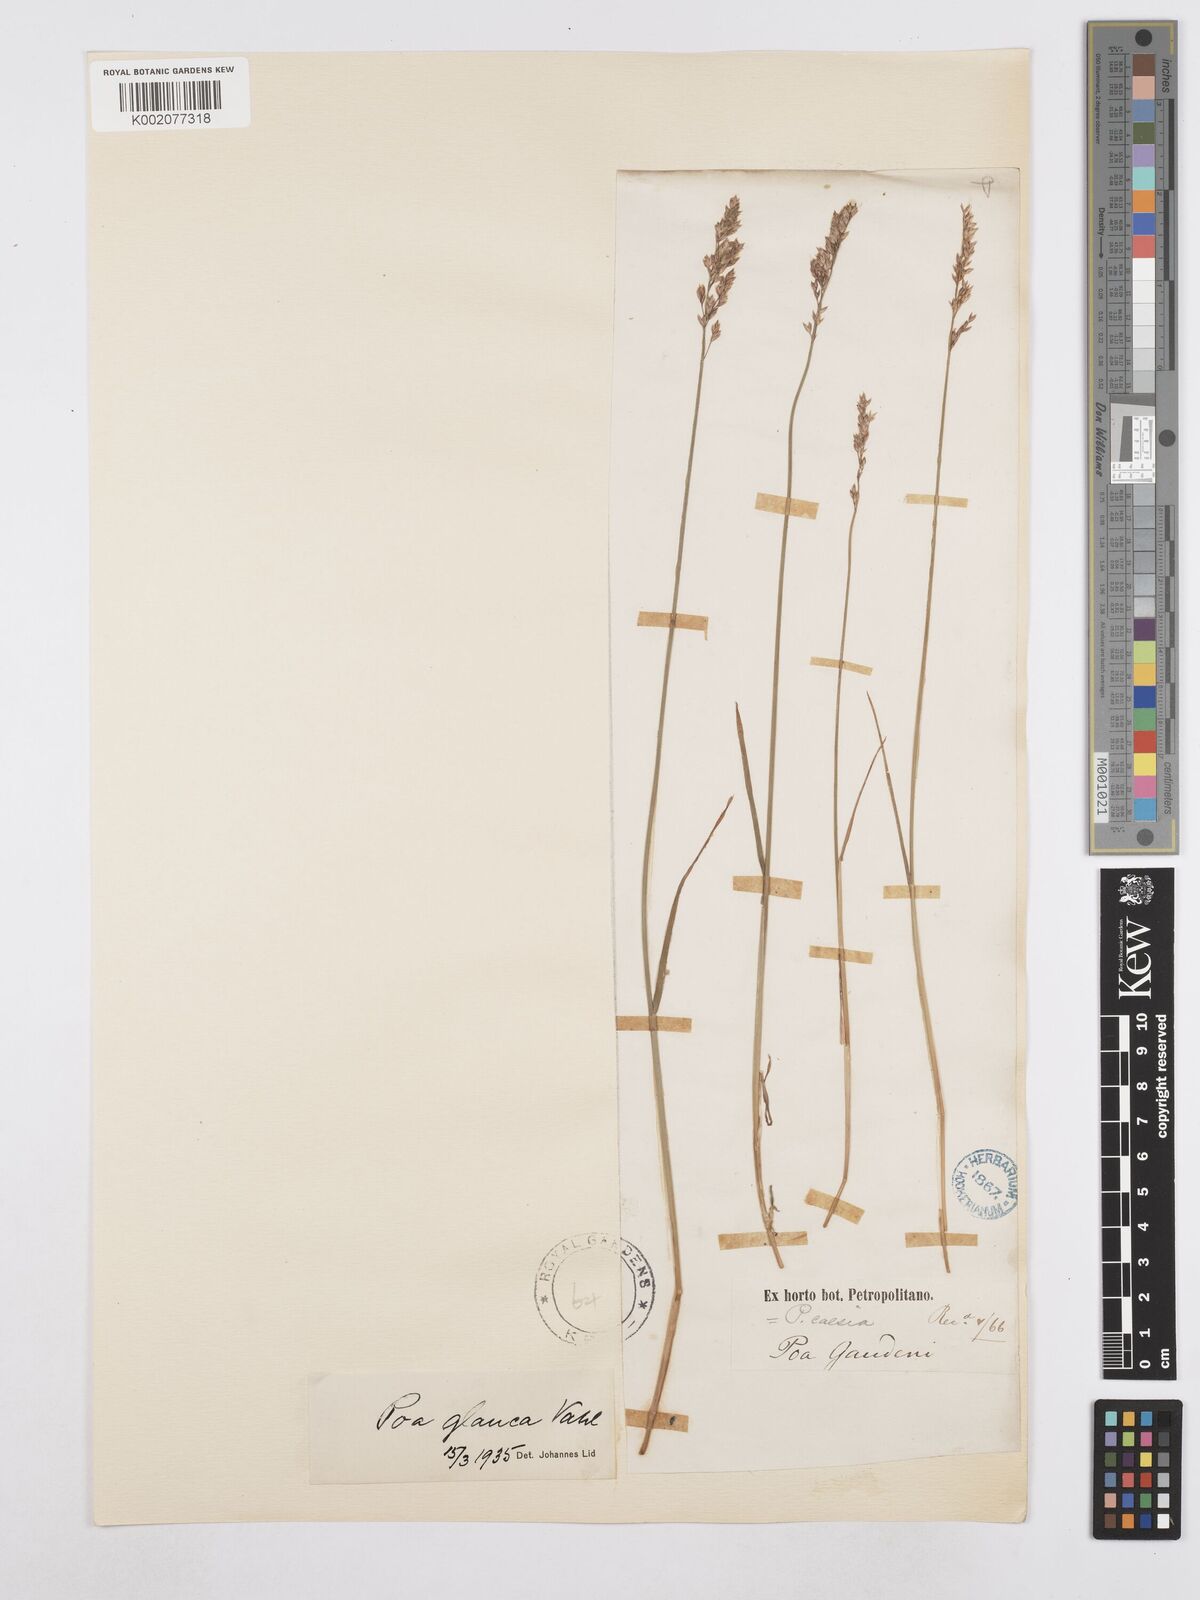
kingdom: Plantae
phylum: Tracheophyta
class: Liliopsida
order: Poales
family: Poaceae
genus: Poa
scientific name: Poa glauca
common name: Glaucous bluegrass
